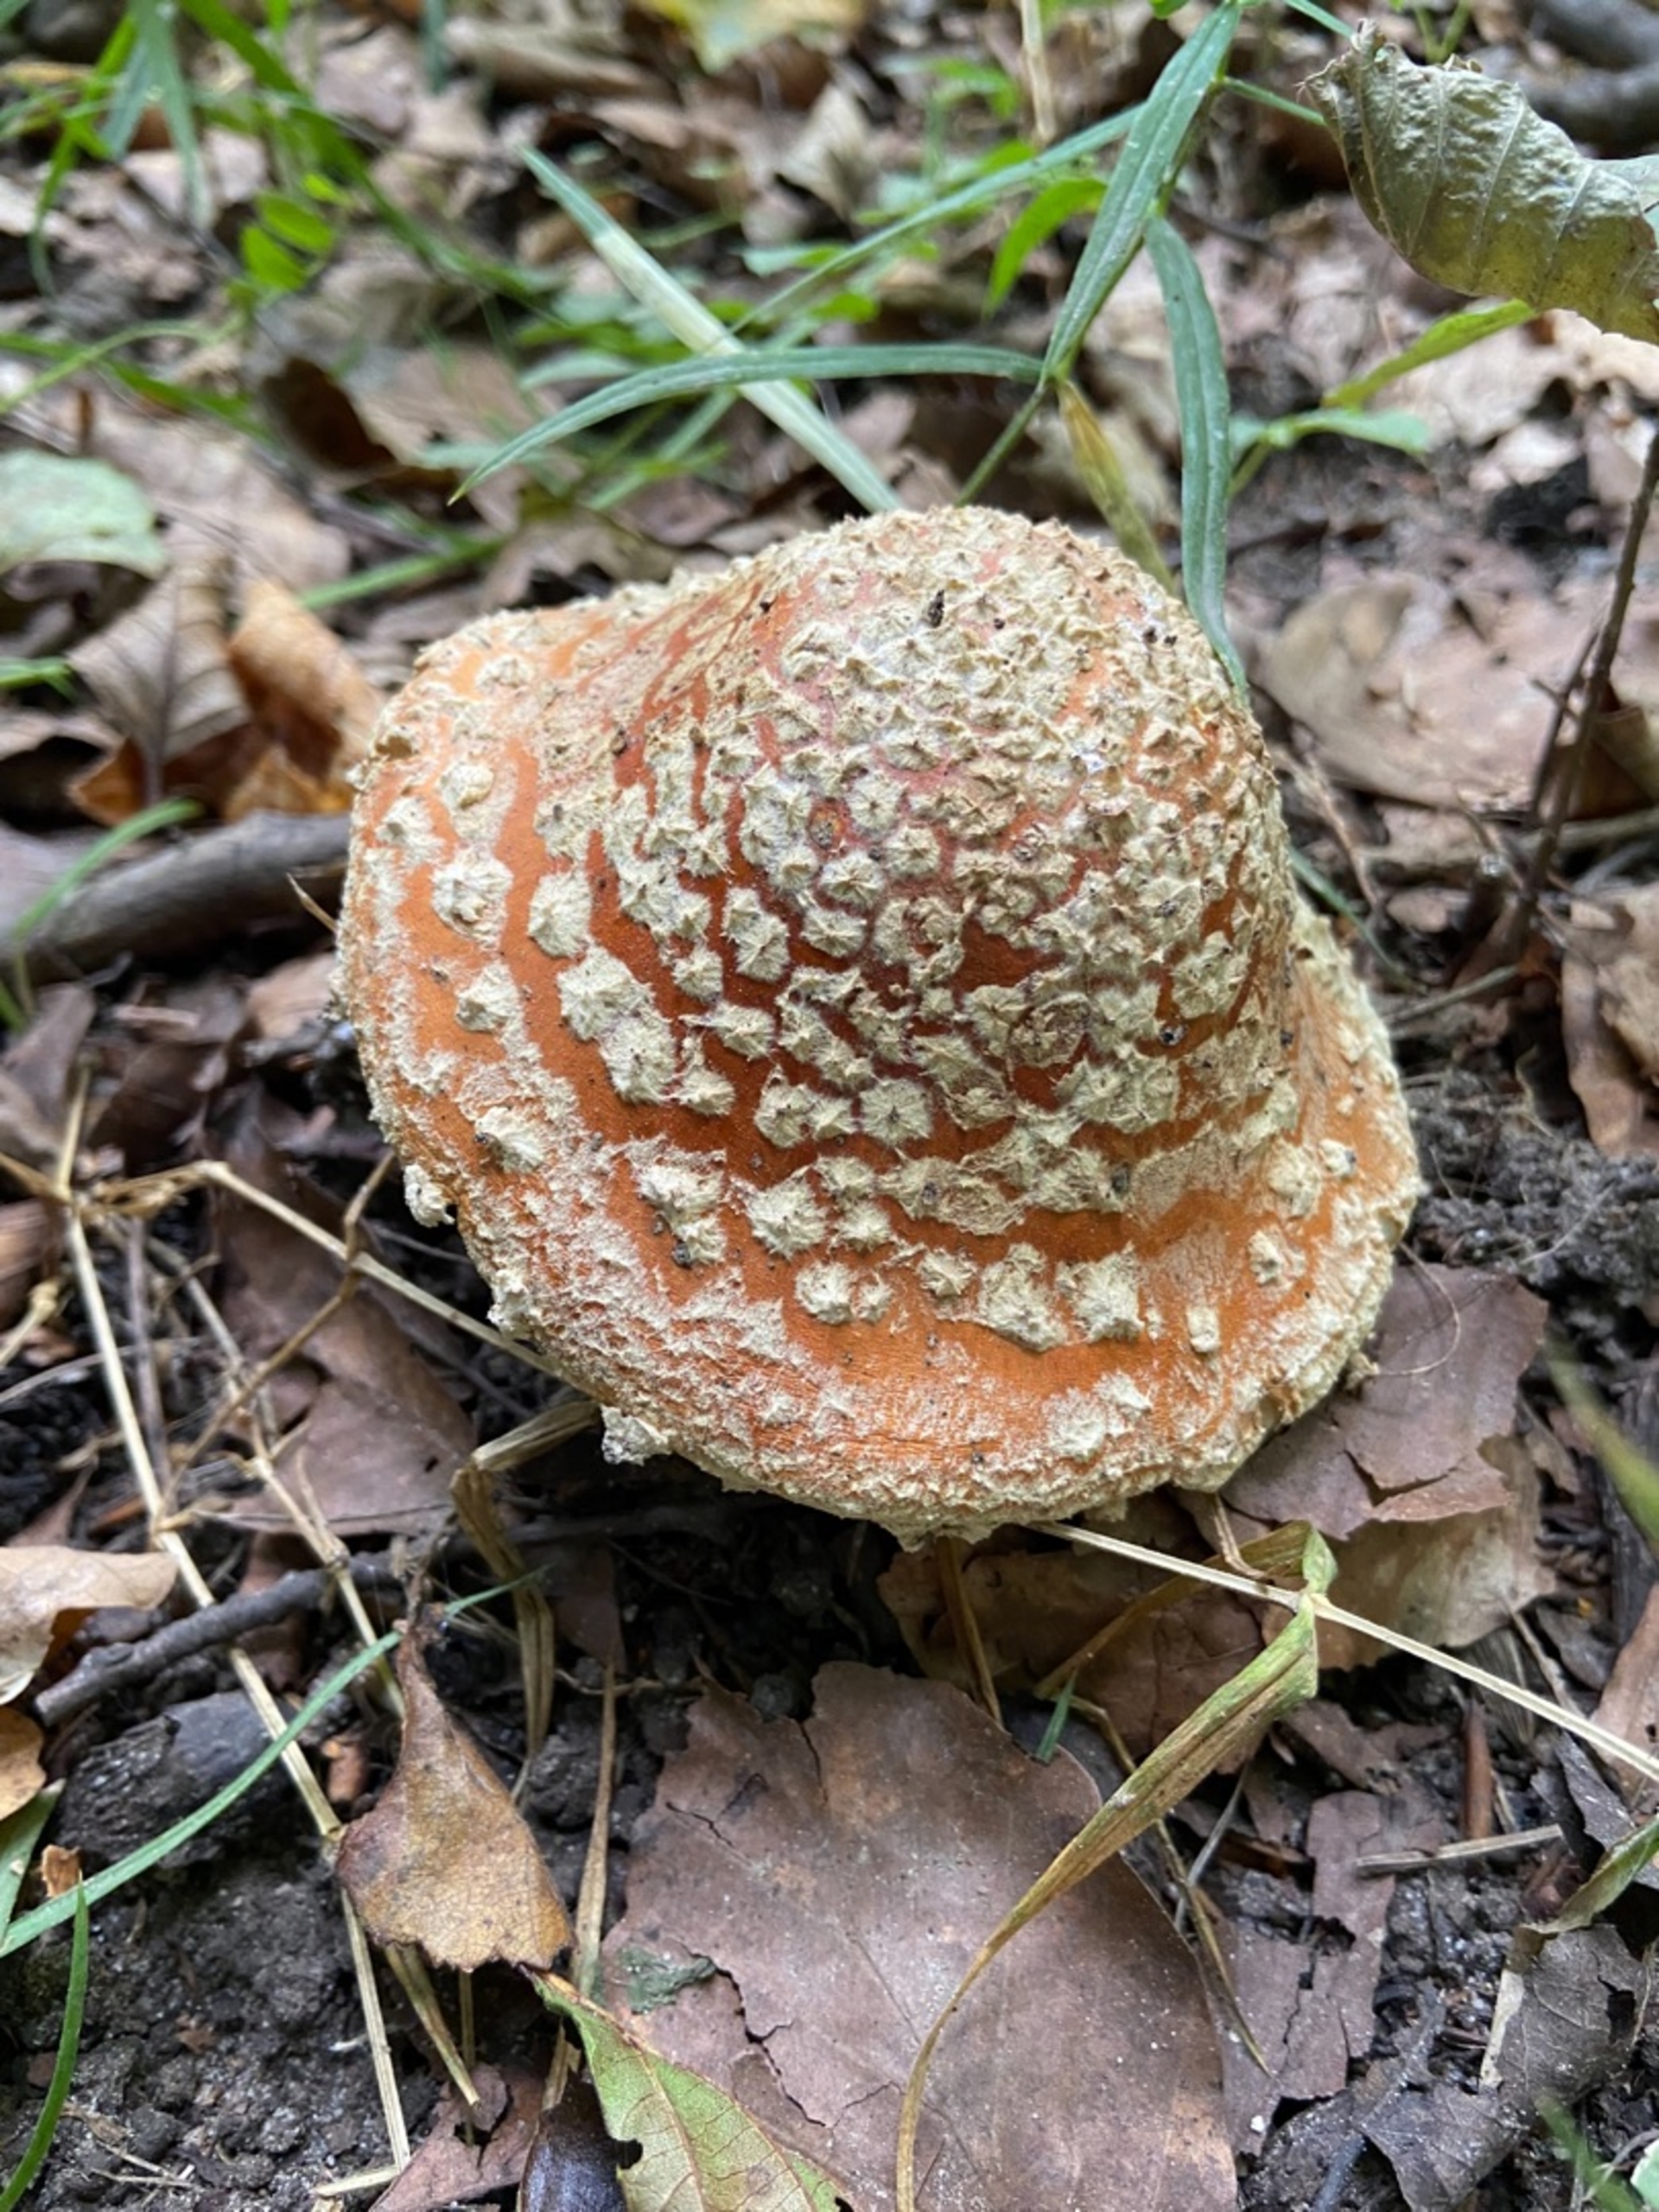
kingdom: Fungi
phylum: Basidiomycota
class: Agaricomycetes
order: Agaricales
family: Amanitaceae
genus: Amanita
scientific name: Amanita muscaria
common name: Rød fluesvamp
